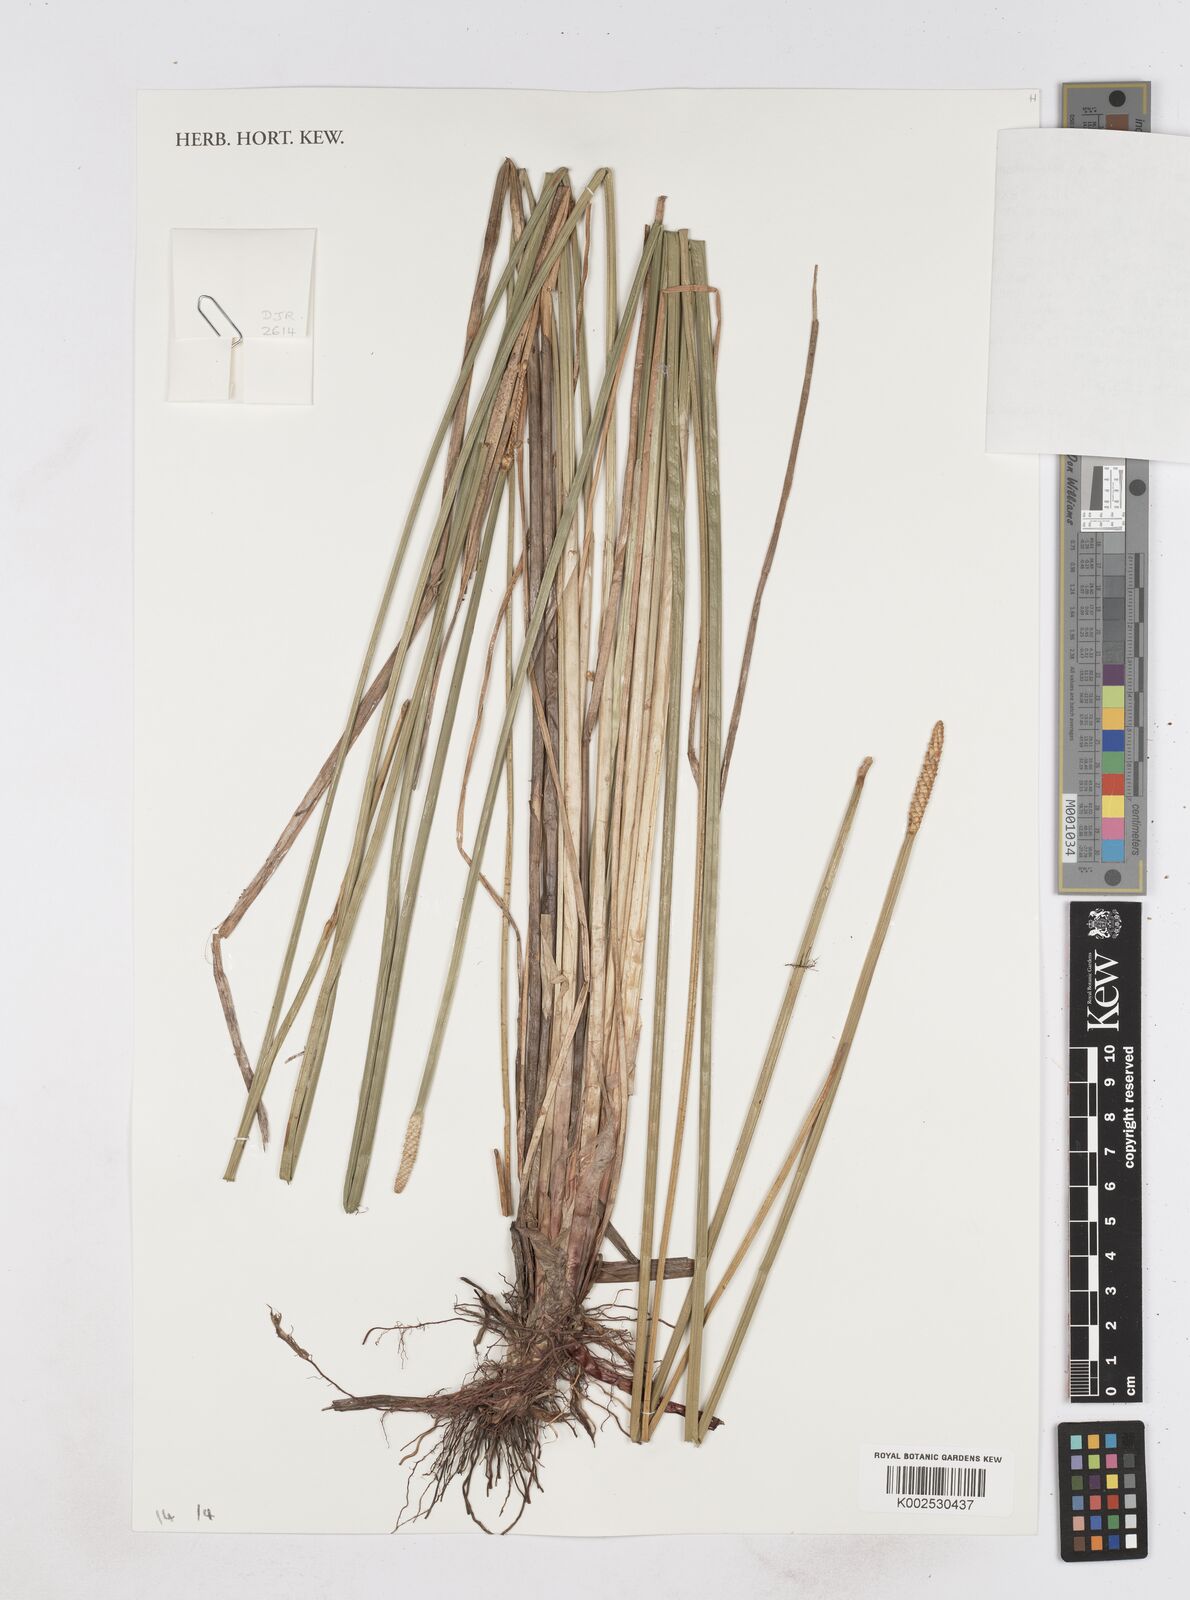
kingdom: Plantae
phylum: Tracheophyta
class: Liliopsida
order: Poales
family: Cyperaceae
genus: Eleocharis
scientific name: Eleocharis mutata
